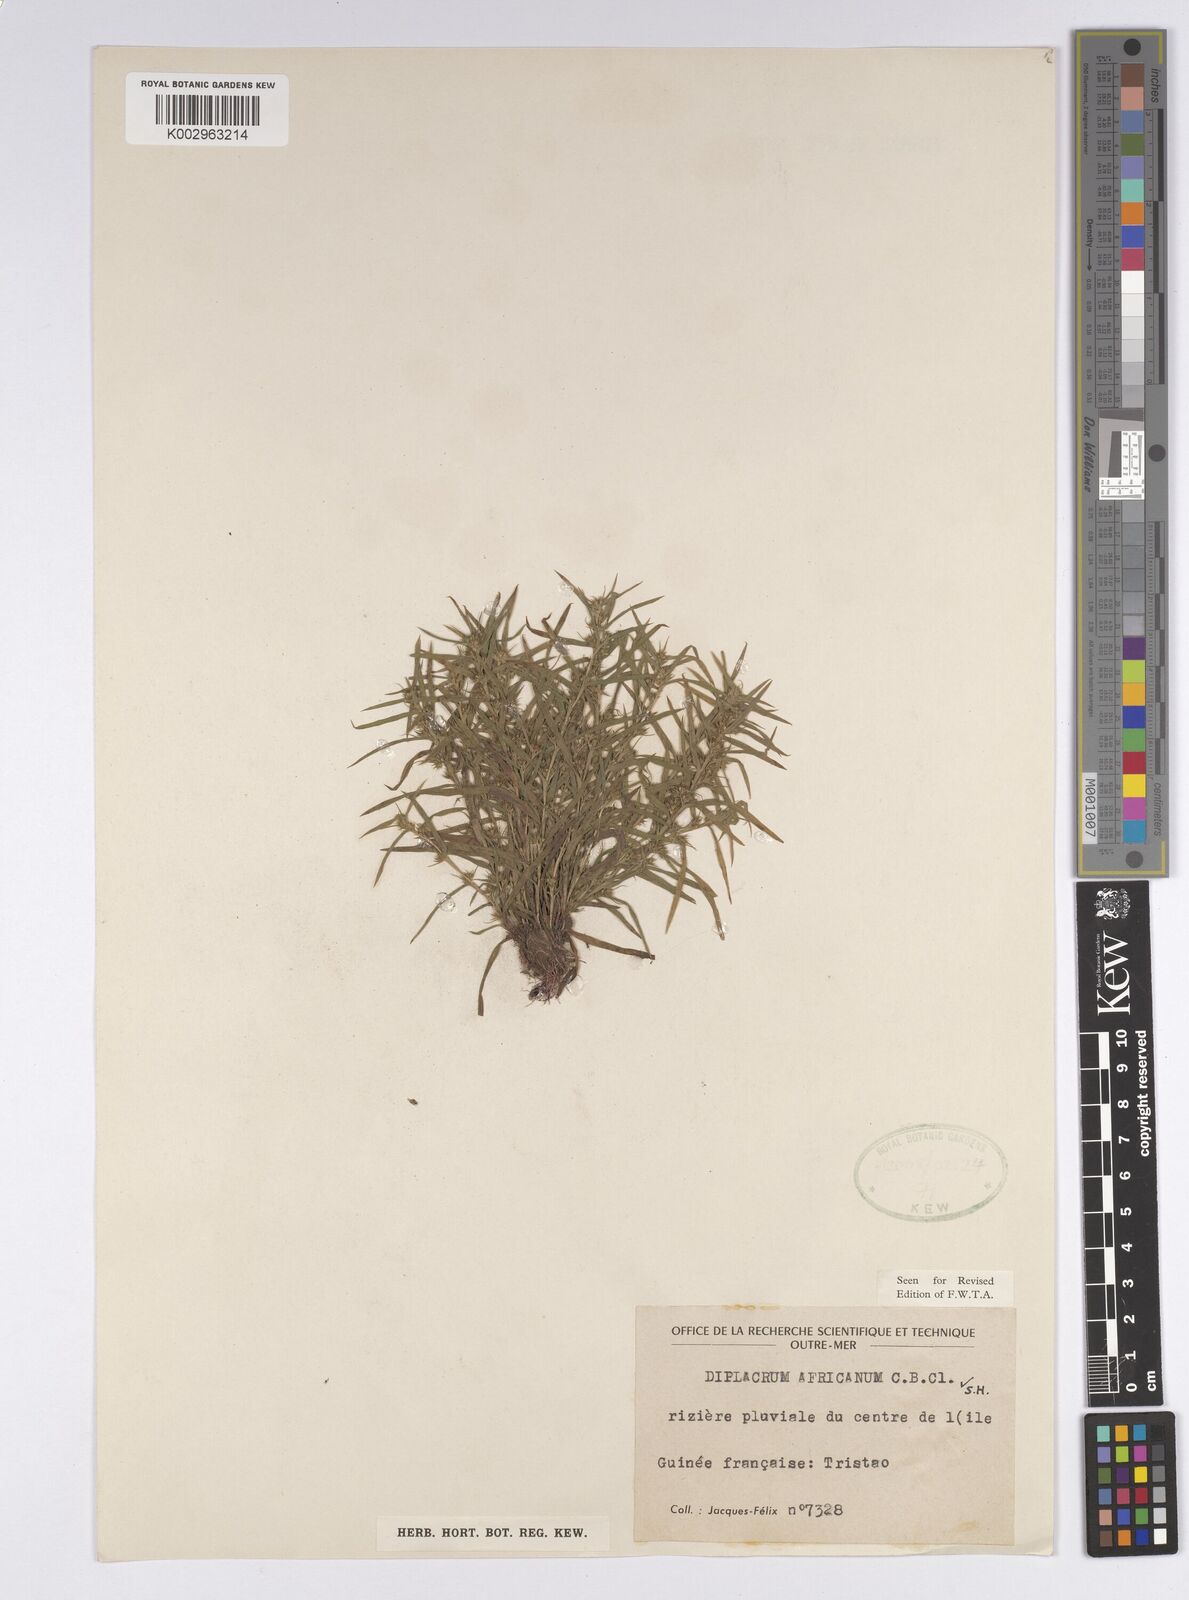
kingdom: Plantae
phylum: Tracheophyta
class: Liliopsida
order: Poales
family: Cyperaceae
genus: Diplacrum
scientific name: Diplacrum africanum
